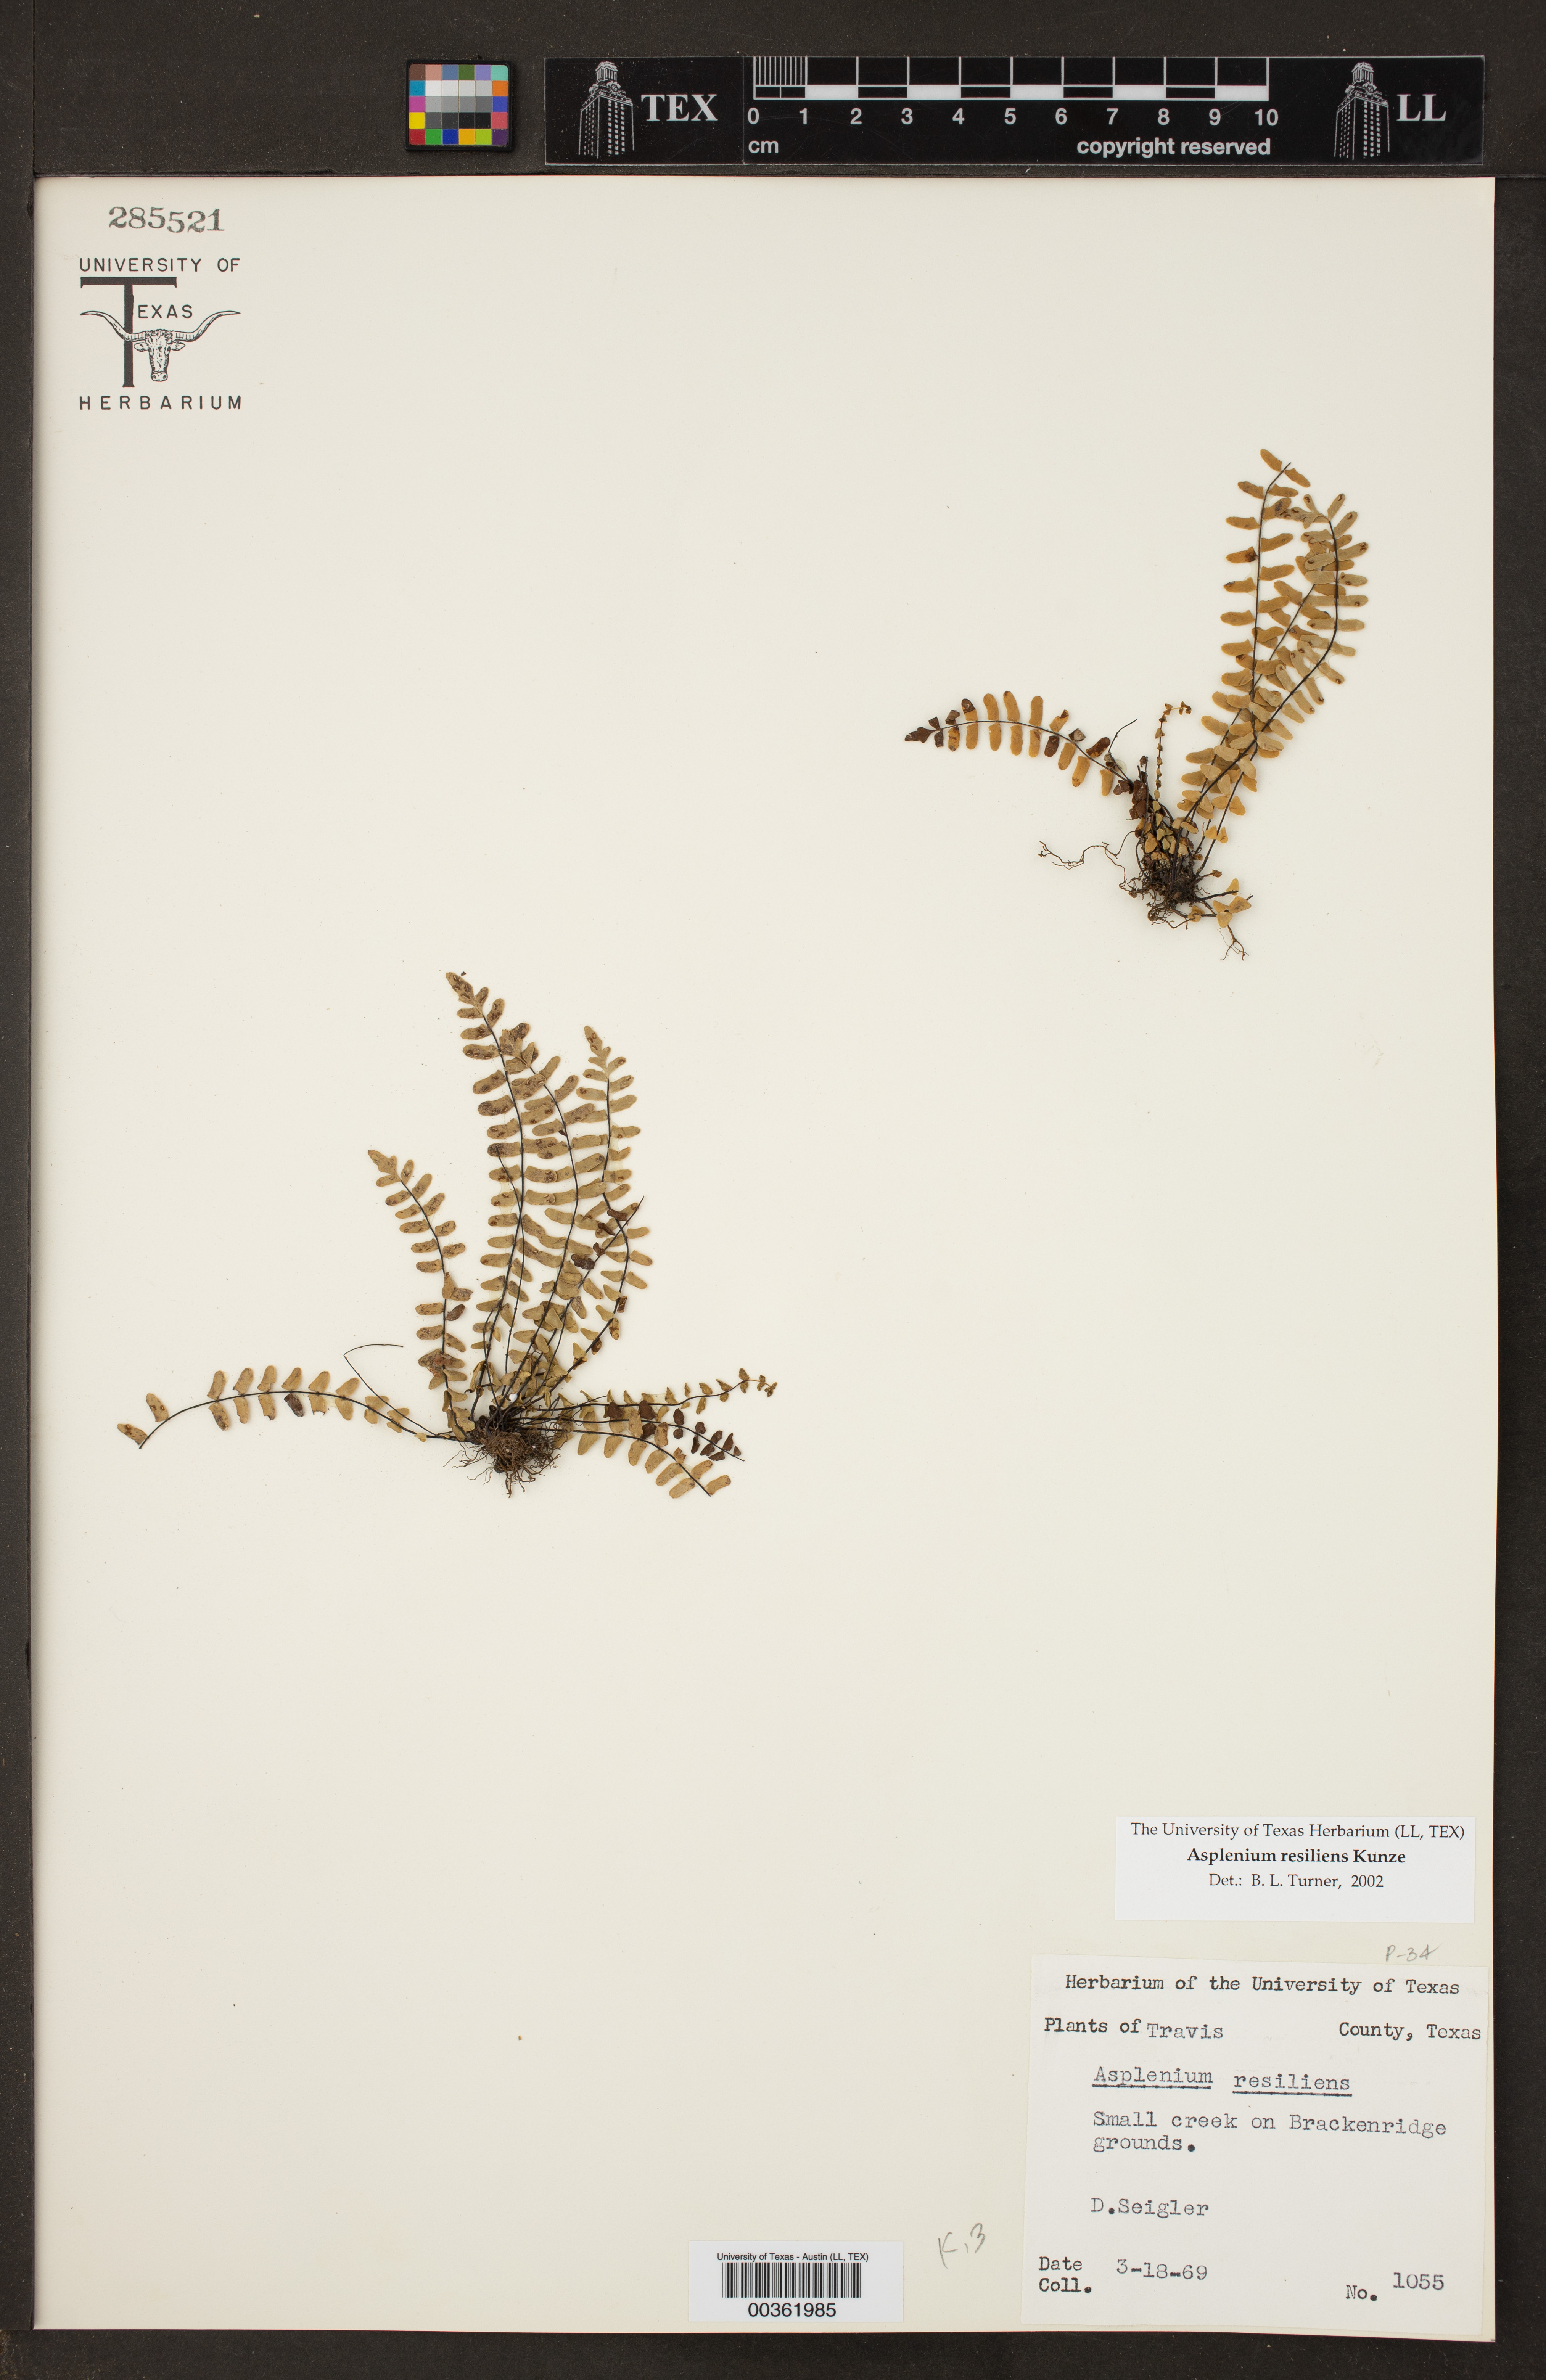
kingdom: Plantae
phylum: Tracheophyta
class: Polypodiopsida
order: Polypodiales
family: Aspleniaceae
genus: Asplenium
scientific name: Asplenium resiliens
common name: Blackstem spleenwort
